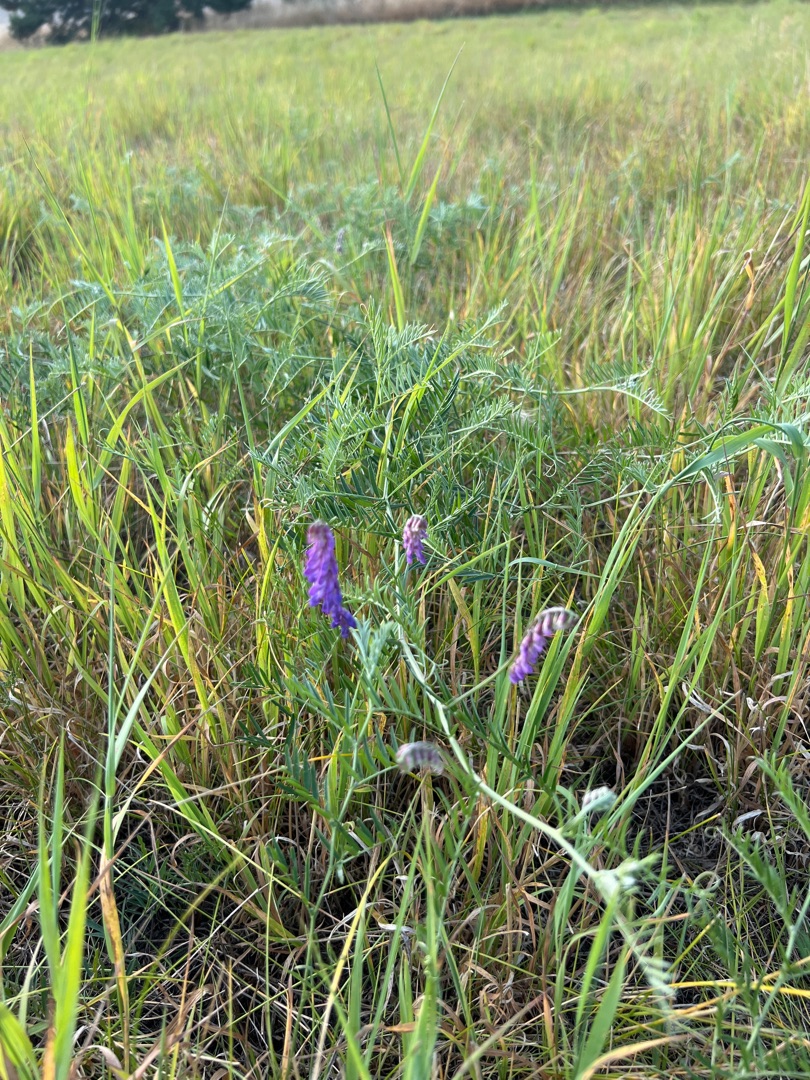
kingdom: Plantae
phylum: Tracheophyta
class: Magnoliopsida
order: Fabales
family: Fabaceae
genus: Vicia
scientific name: Vicia cracca
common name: Muse-vikke
